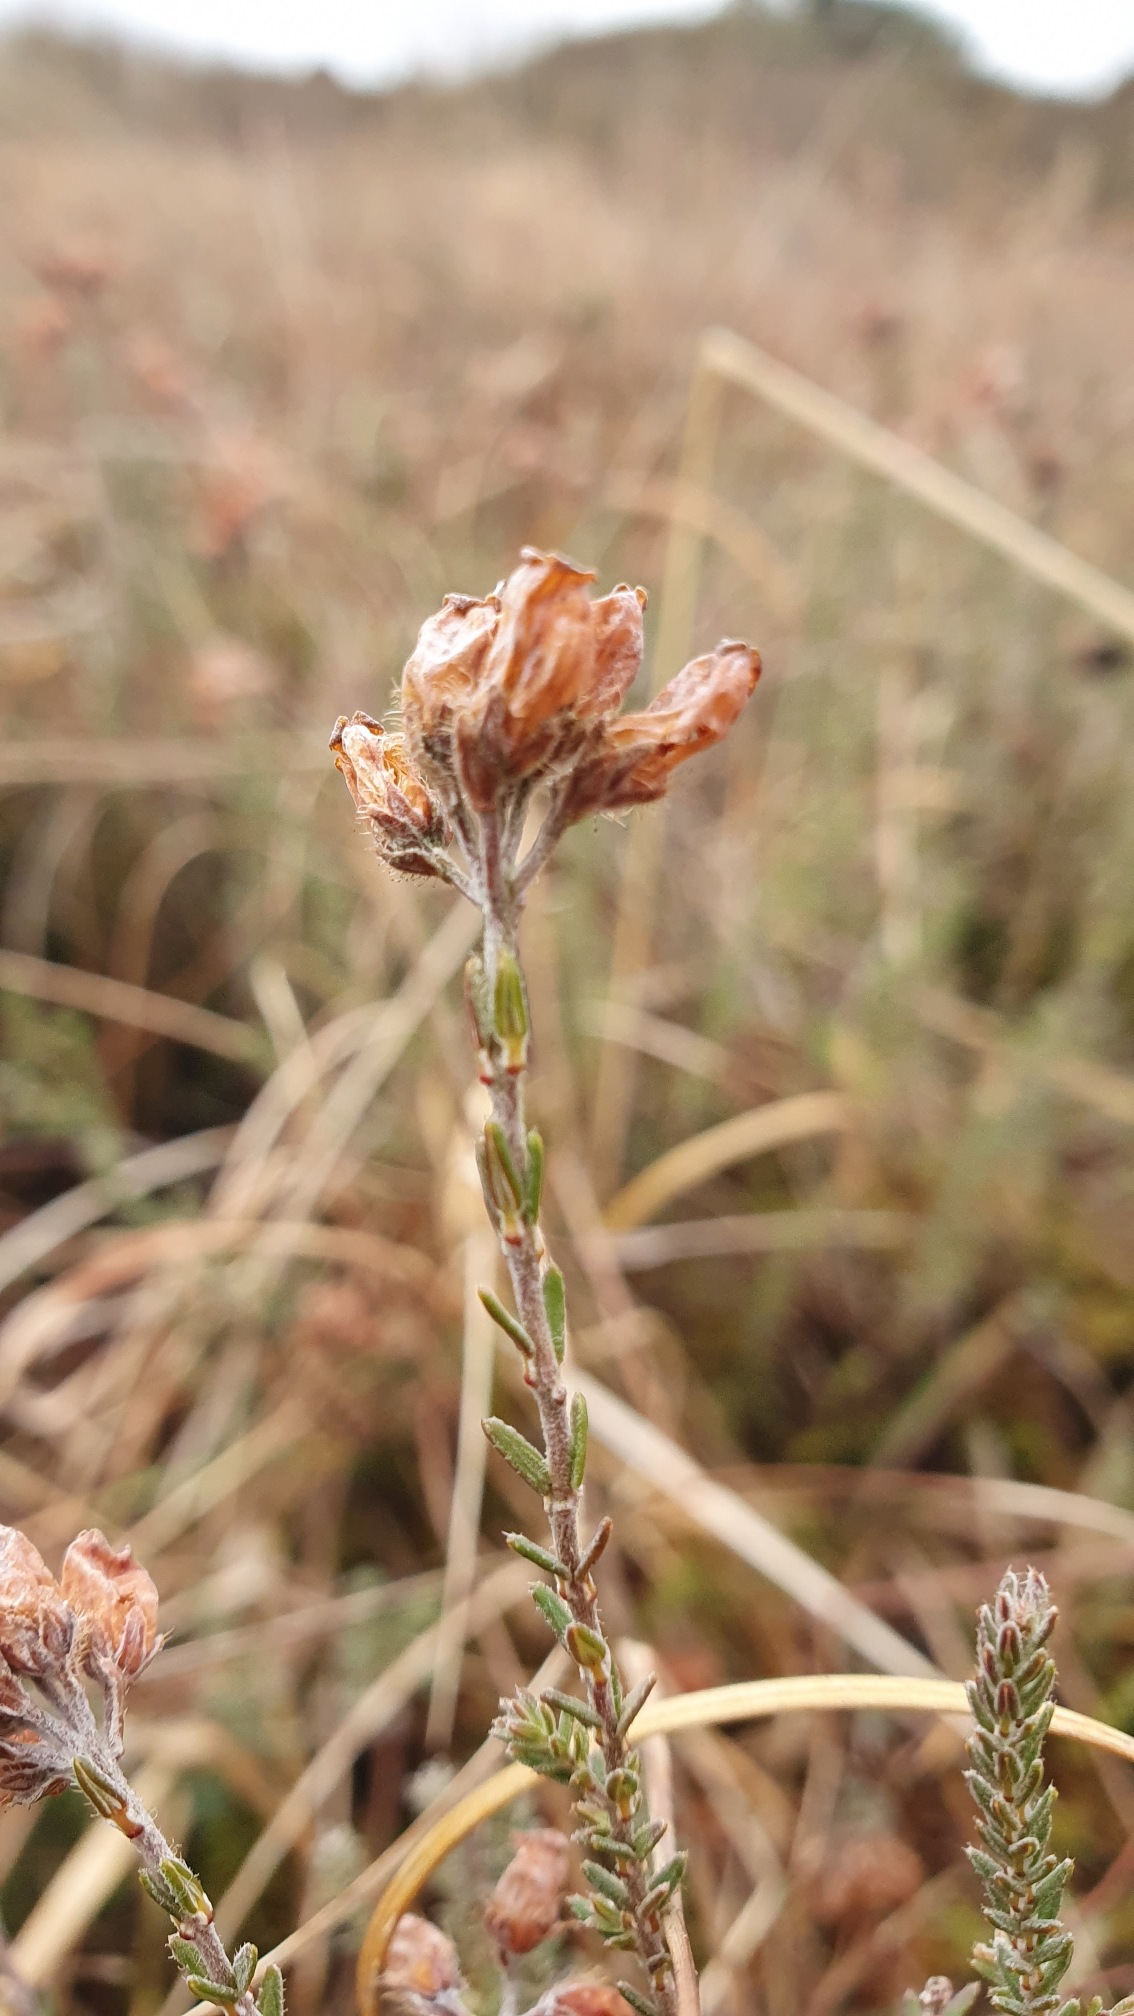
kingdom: Plantae
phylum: Tracheophyta
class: Magnoliopsida
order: Ericales
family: Ericaceae
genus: Erica
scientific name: Erica tetralix
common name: Klokkelyng
